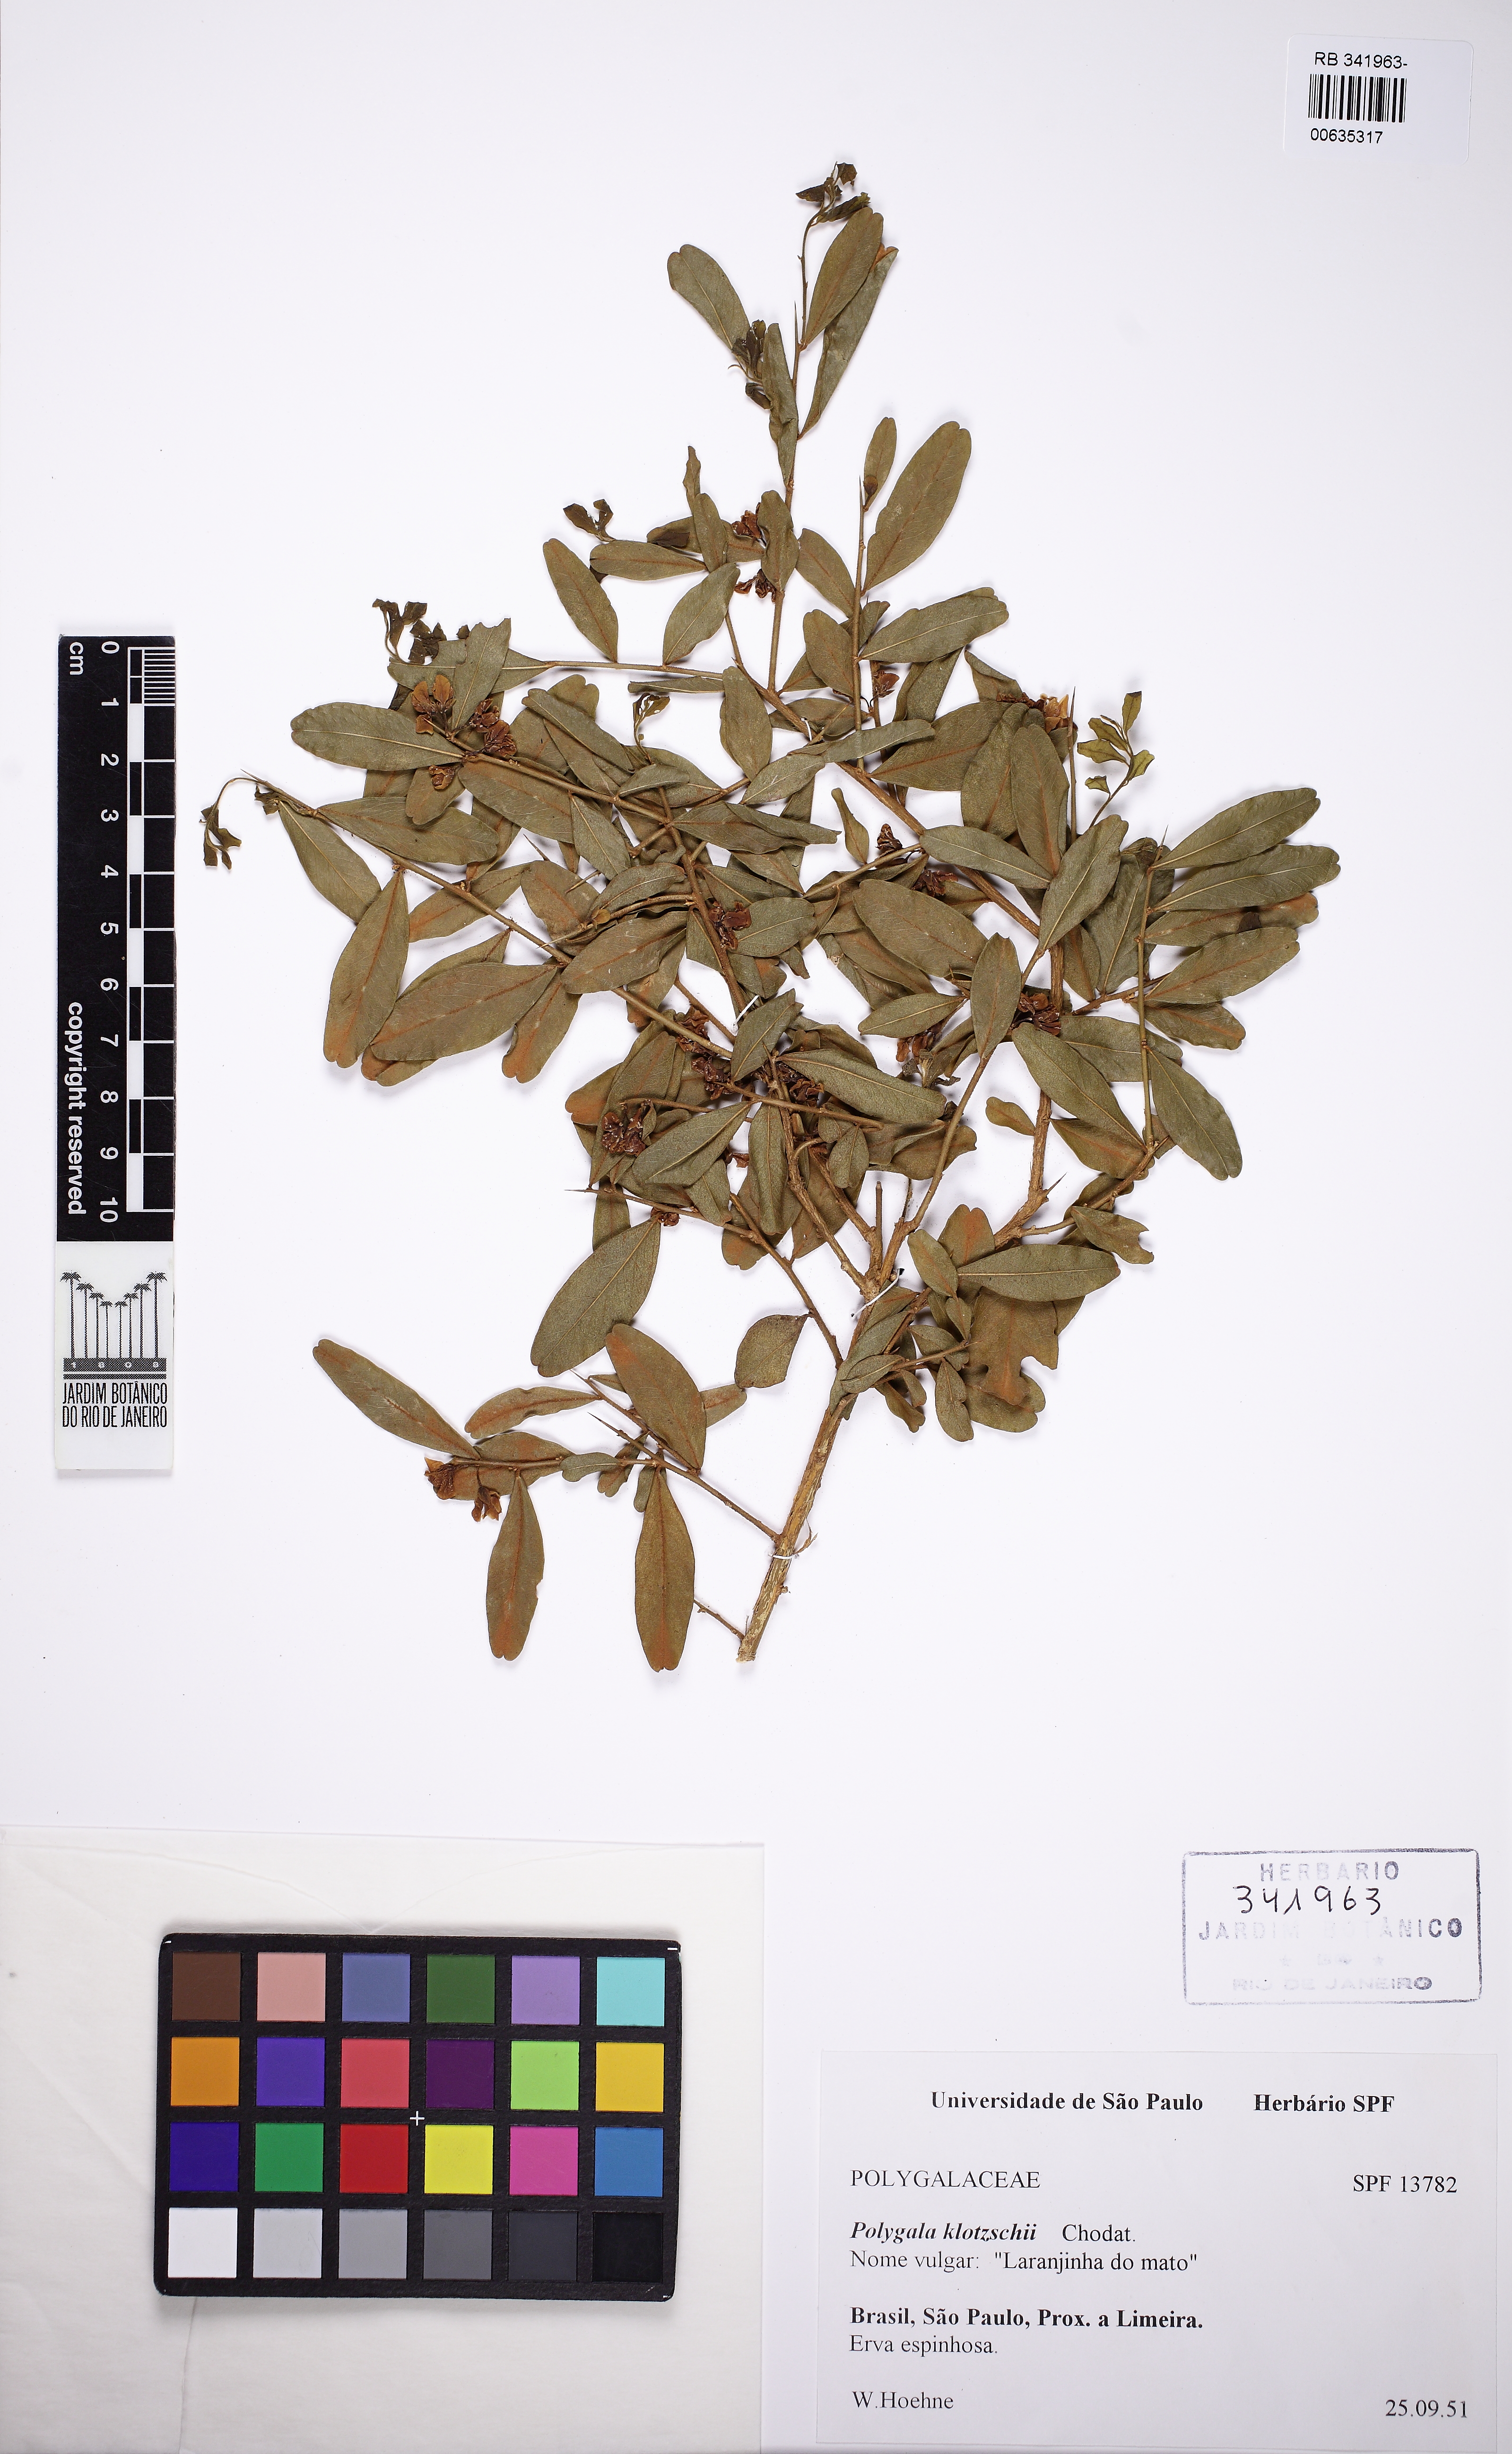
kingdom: Plantae
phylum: Tracheophyta
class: Magnoliopsida
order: Fabales
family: Polygalaceae
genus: Acanthocladus
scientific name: Acanthocladus brasiliensis
